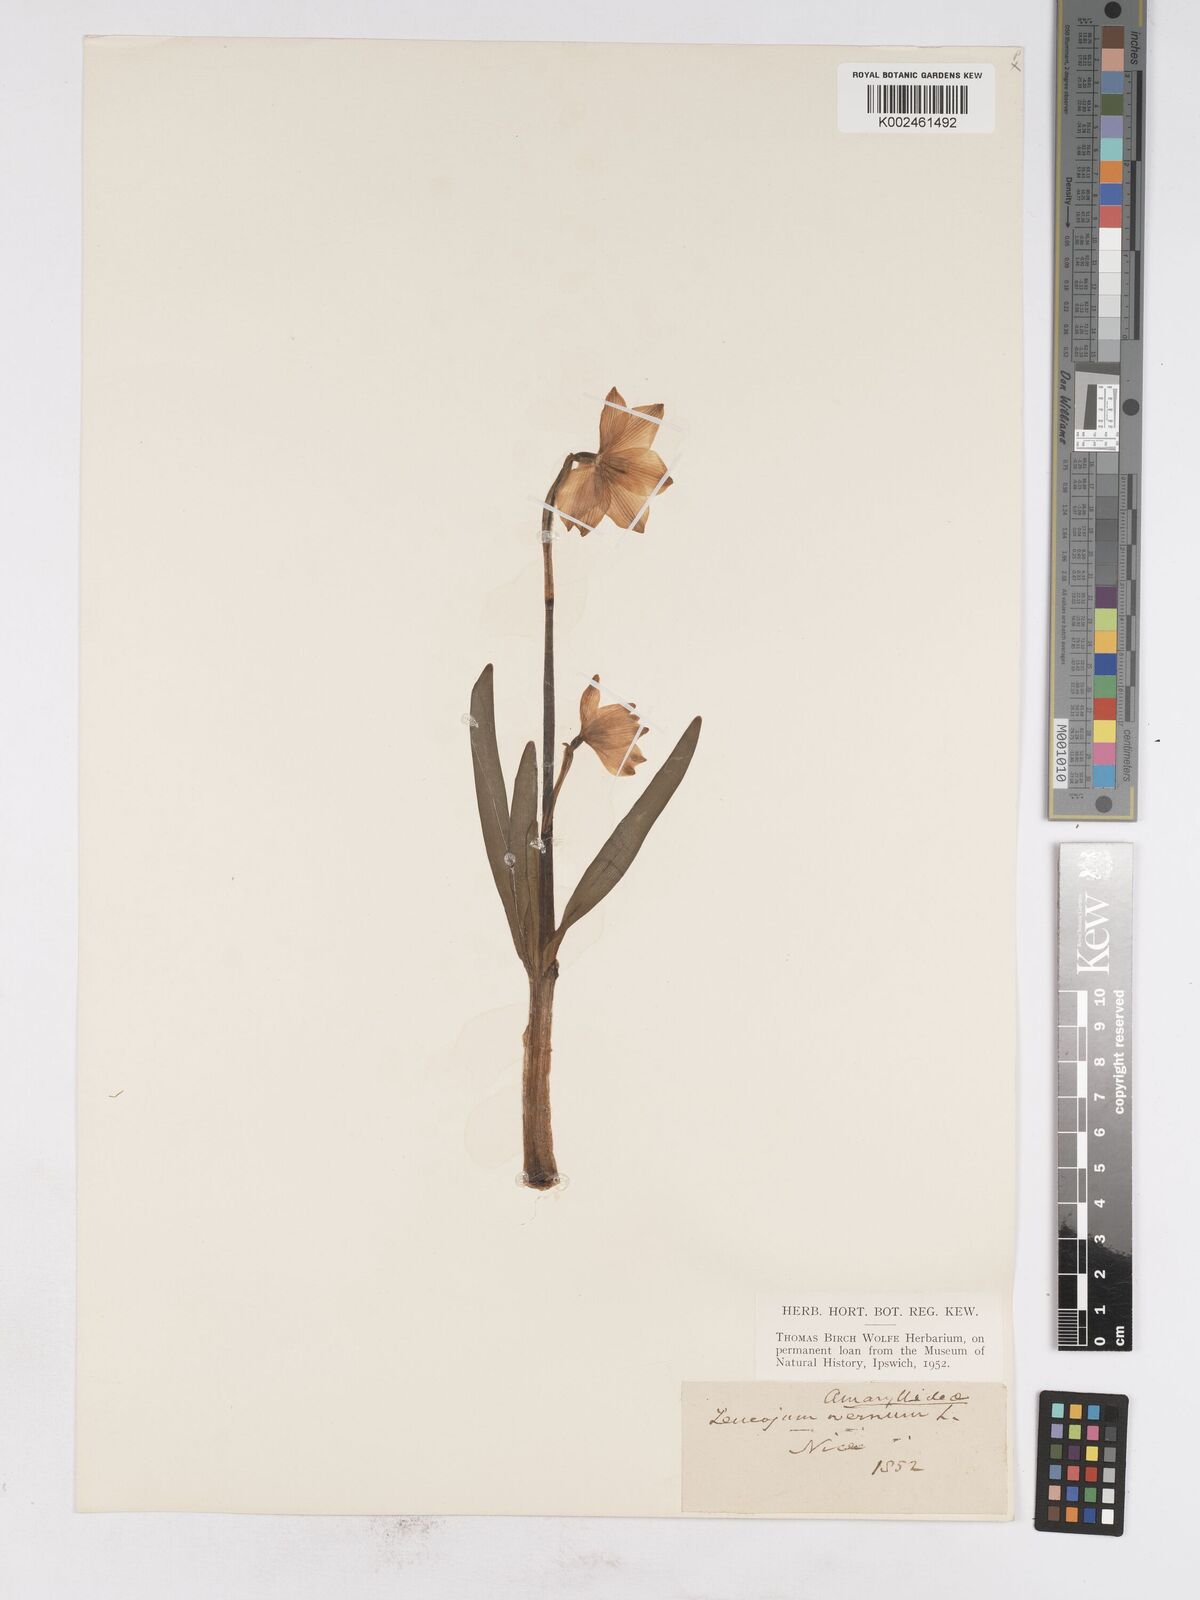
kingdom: Plantae
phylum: Tracheophyta
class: Liliopsida
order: Asparagales
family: Amaryllidaceae
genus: Leucojum
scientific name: Leucojum vernum
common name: Spring snowflake
